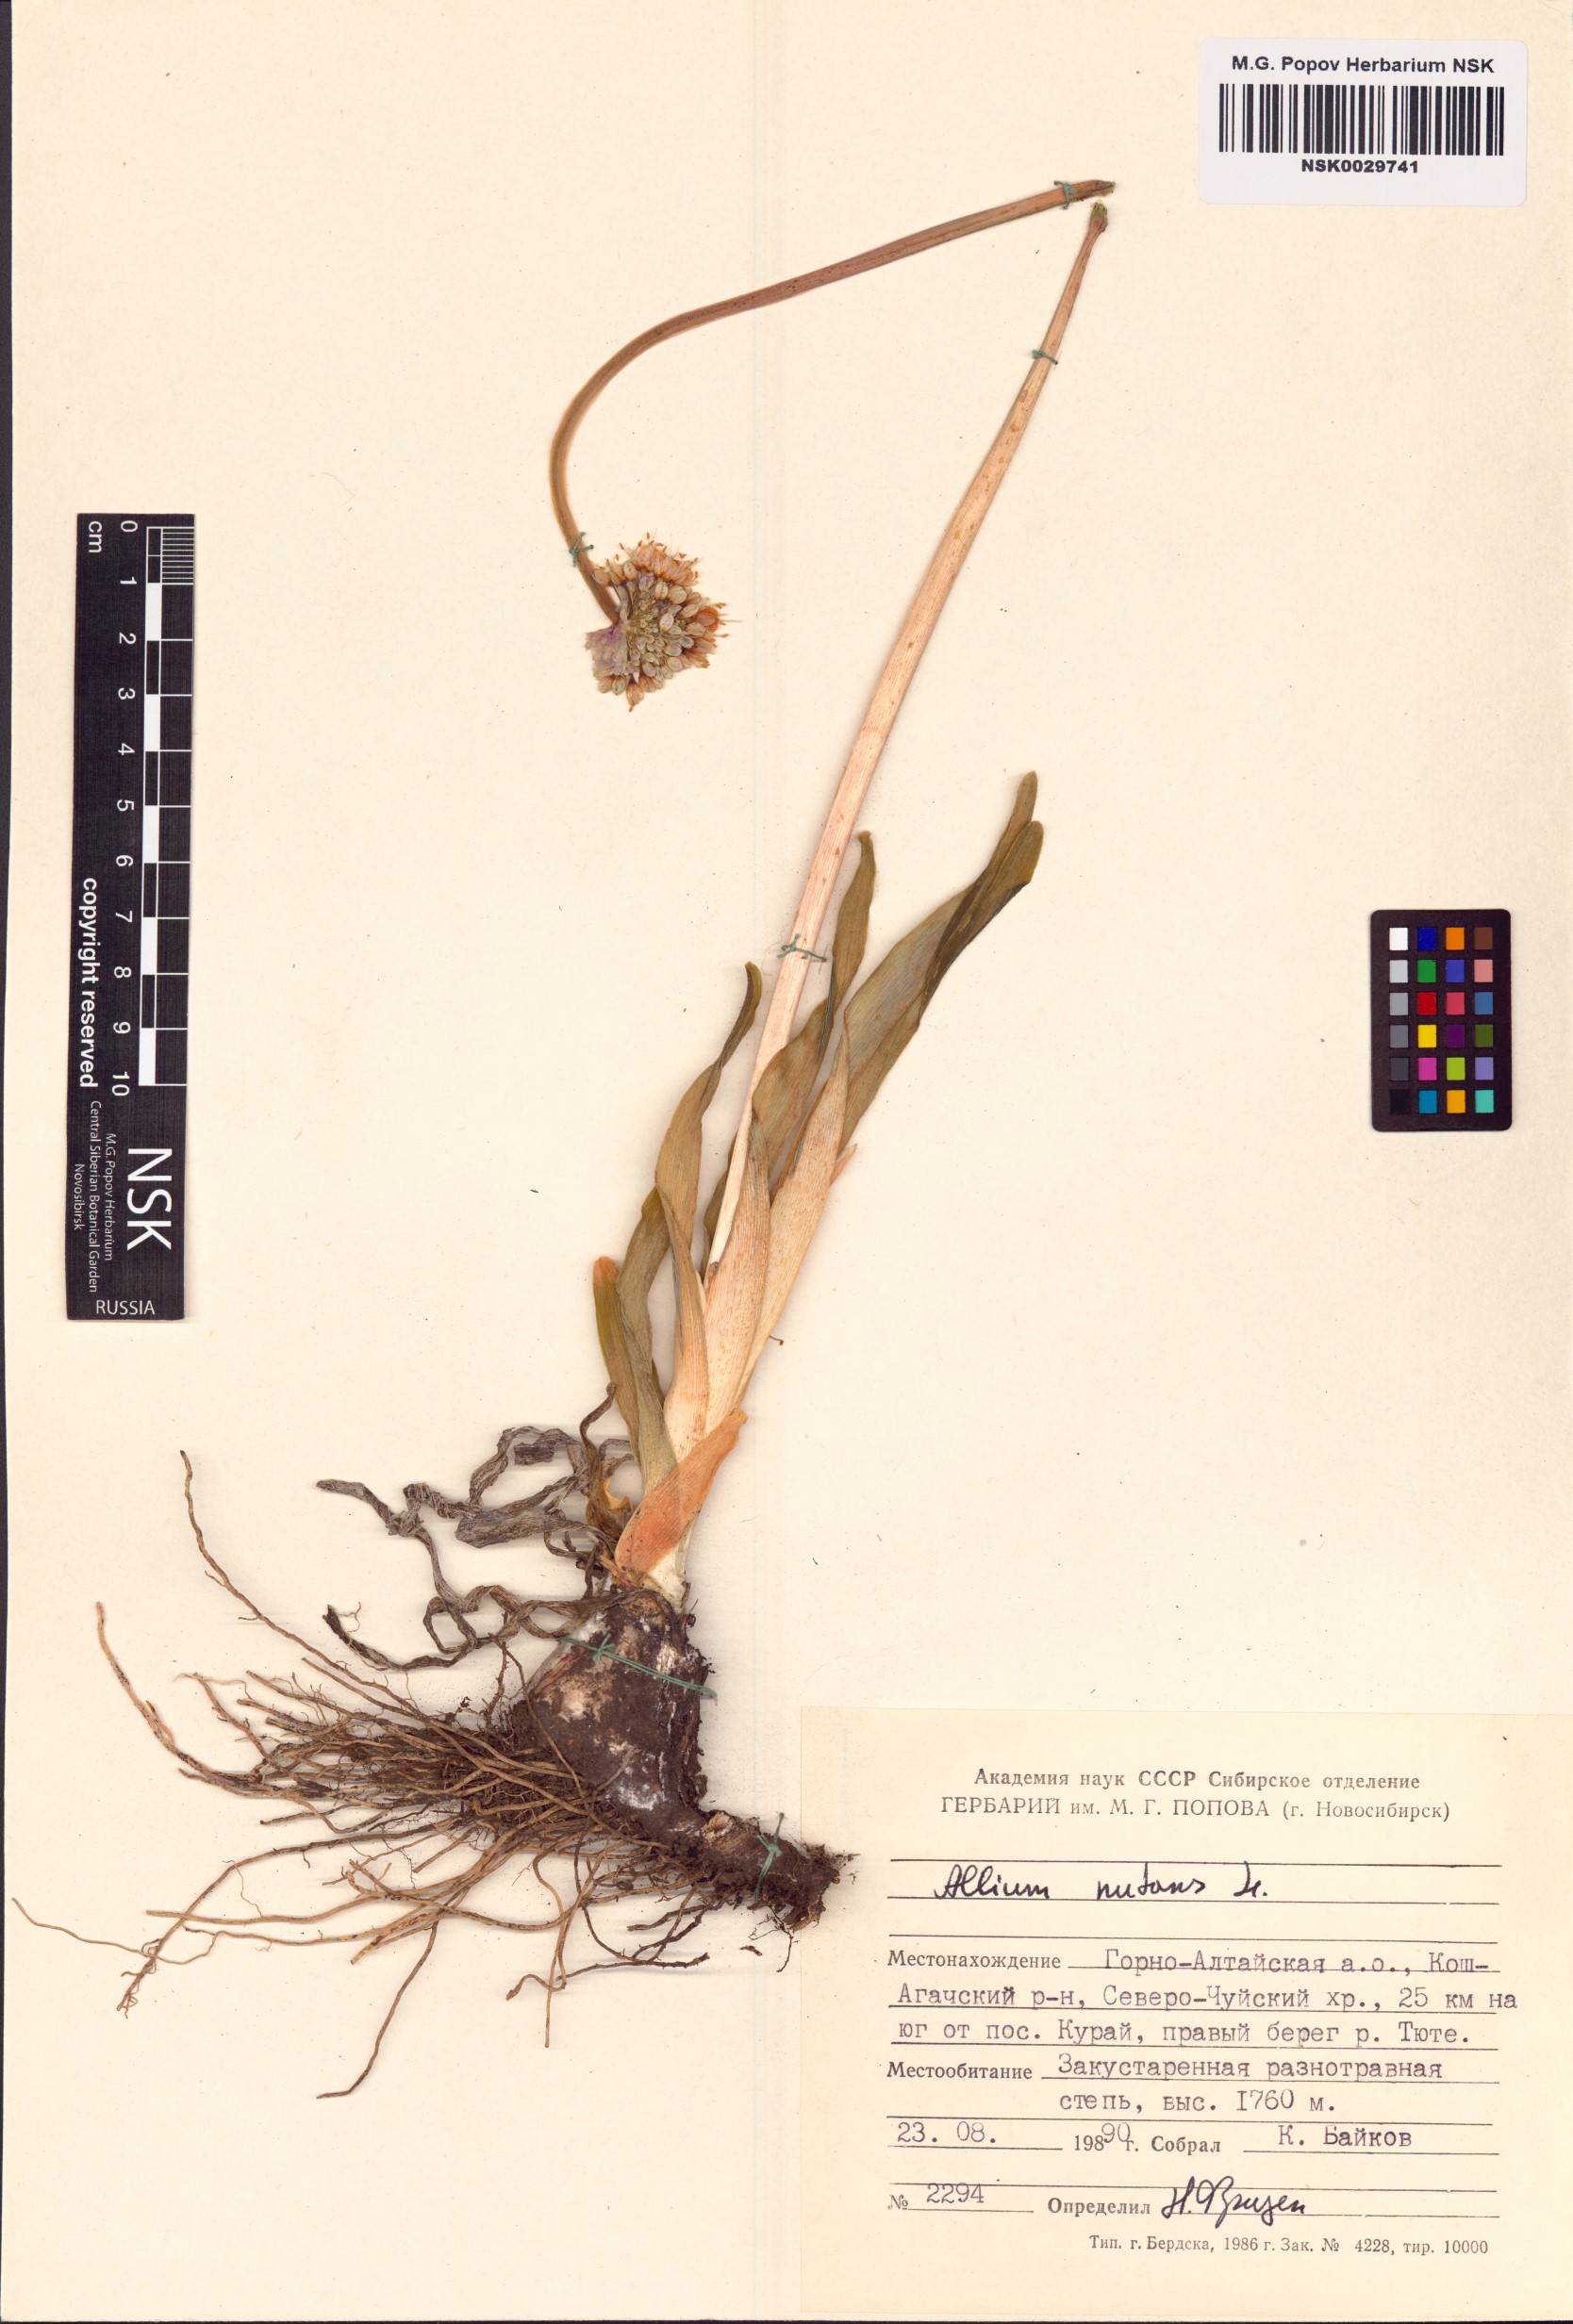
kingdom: Plantae
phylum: Tracheophyta
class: Liliopsida
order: Asparagales
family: Amaryllidaceae
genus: Allium
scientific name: Allium nutans
